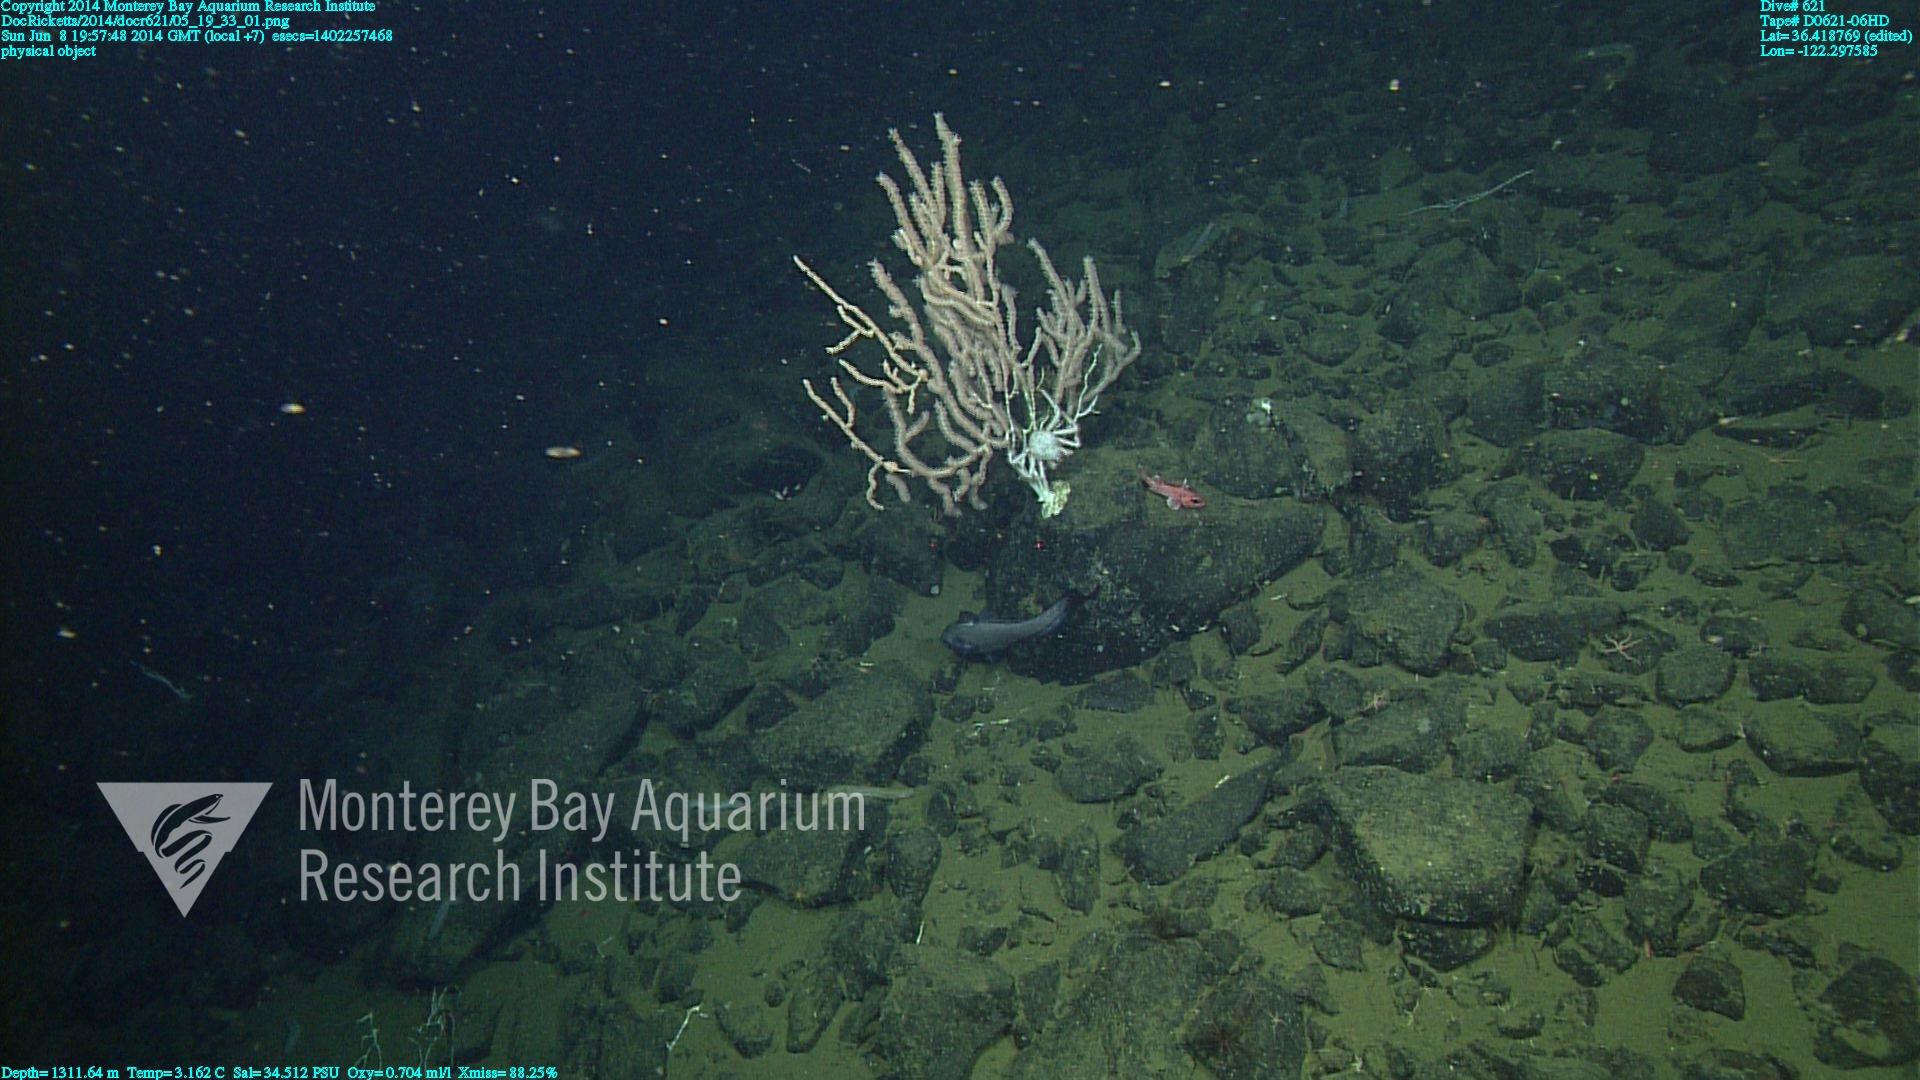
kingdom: Animalia
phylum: Cnidaria
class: Anthozoa
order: Scleralcyonacea
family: Keratoisididae
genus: Keratoisis
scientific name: Keratoisis
